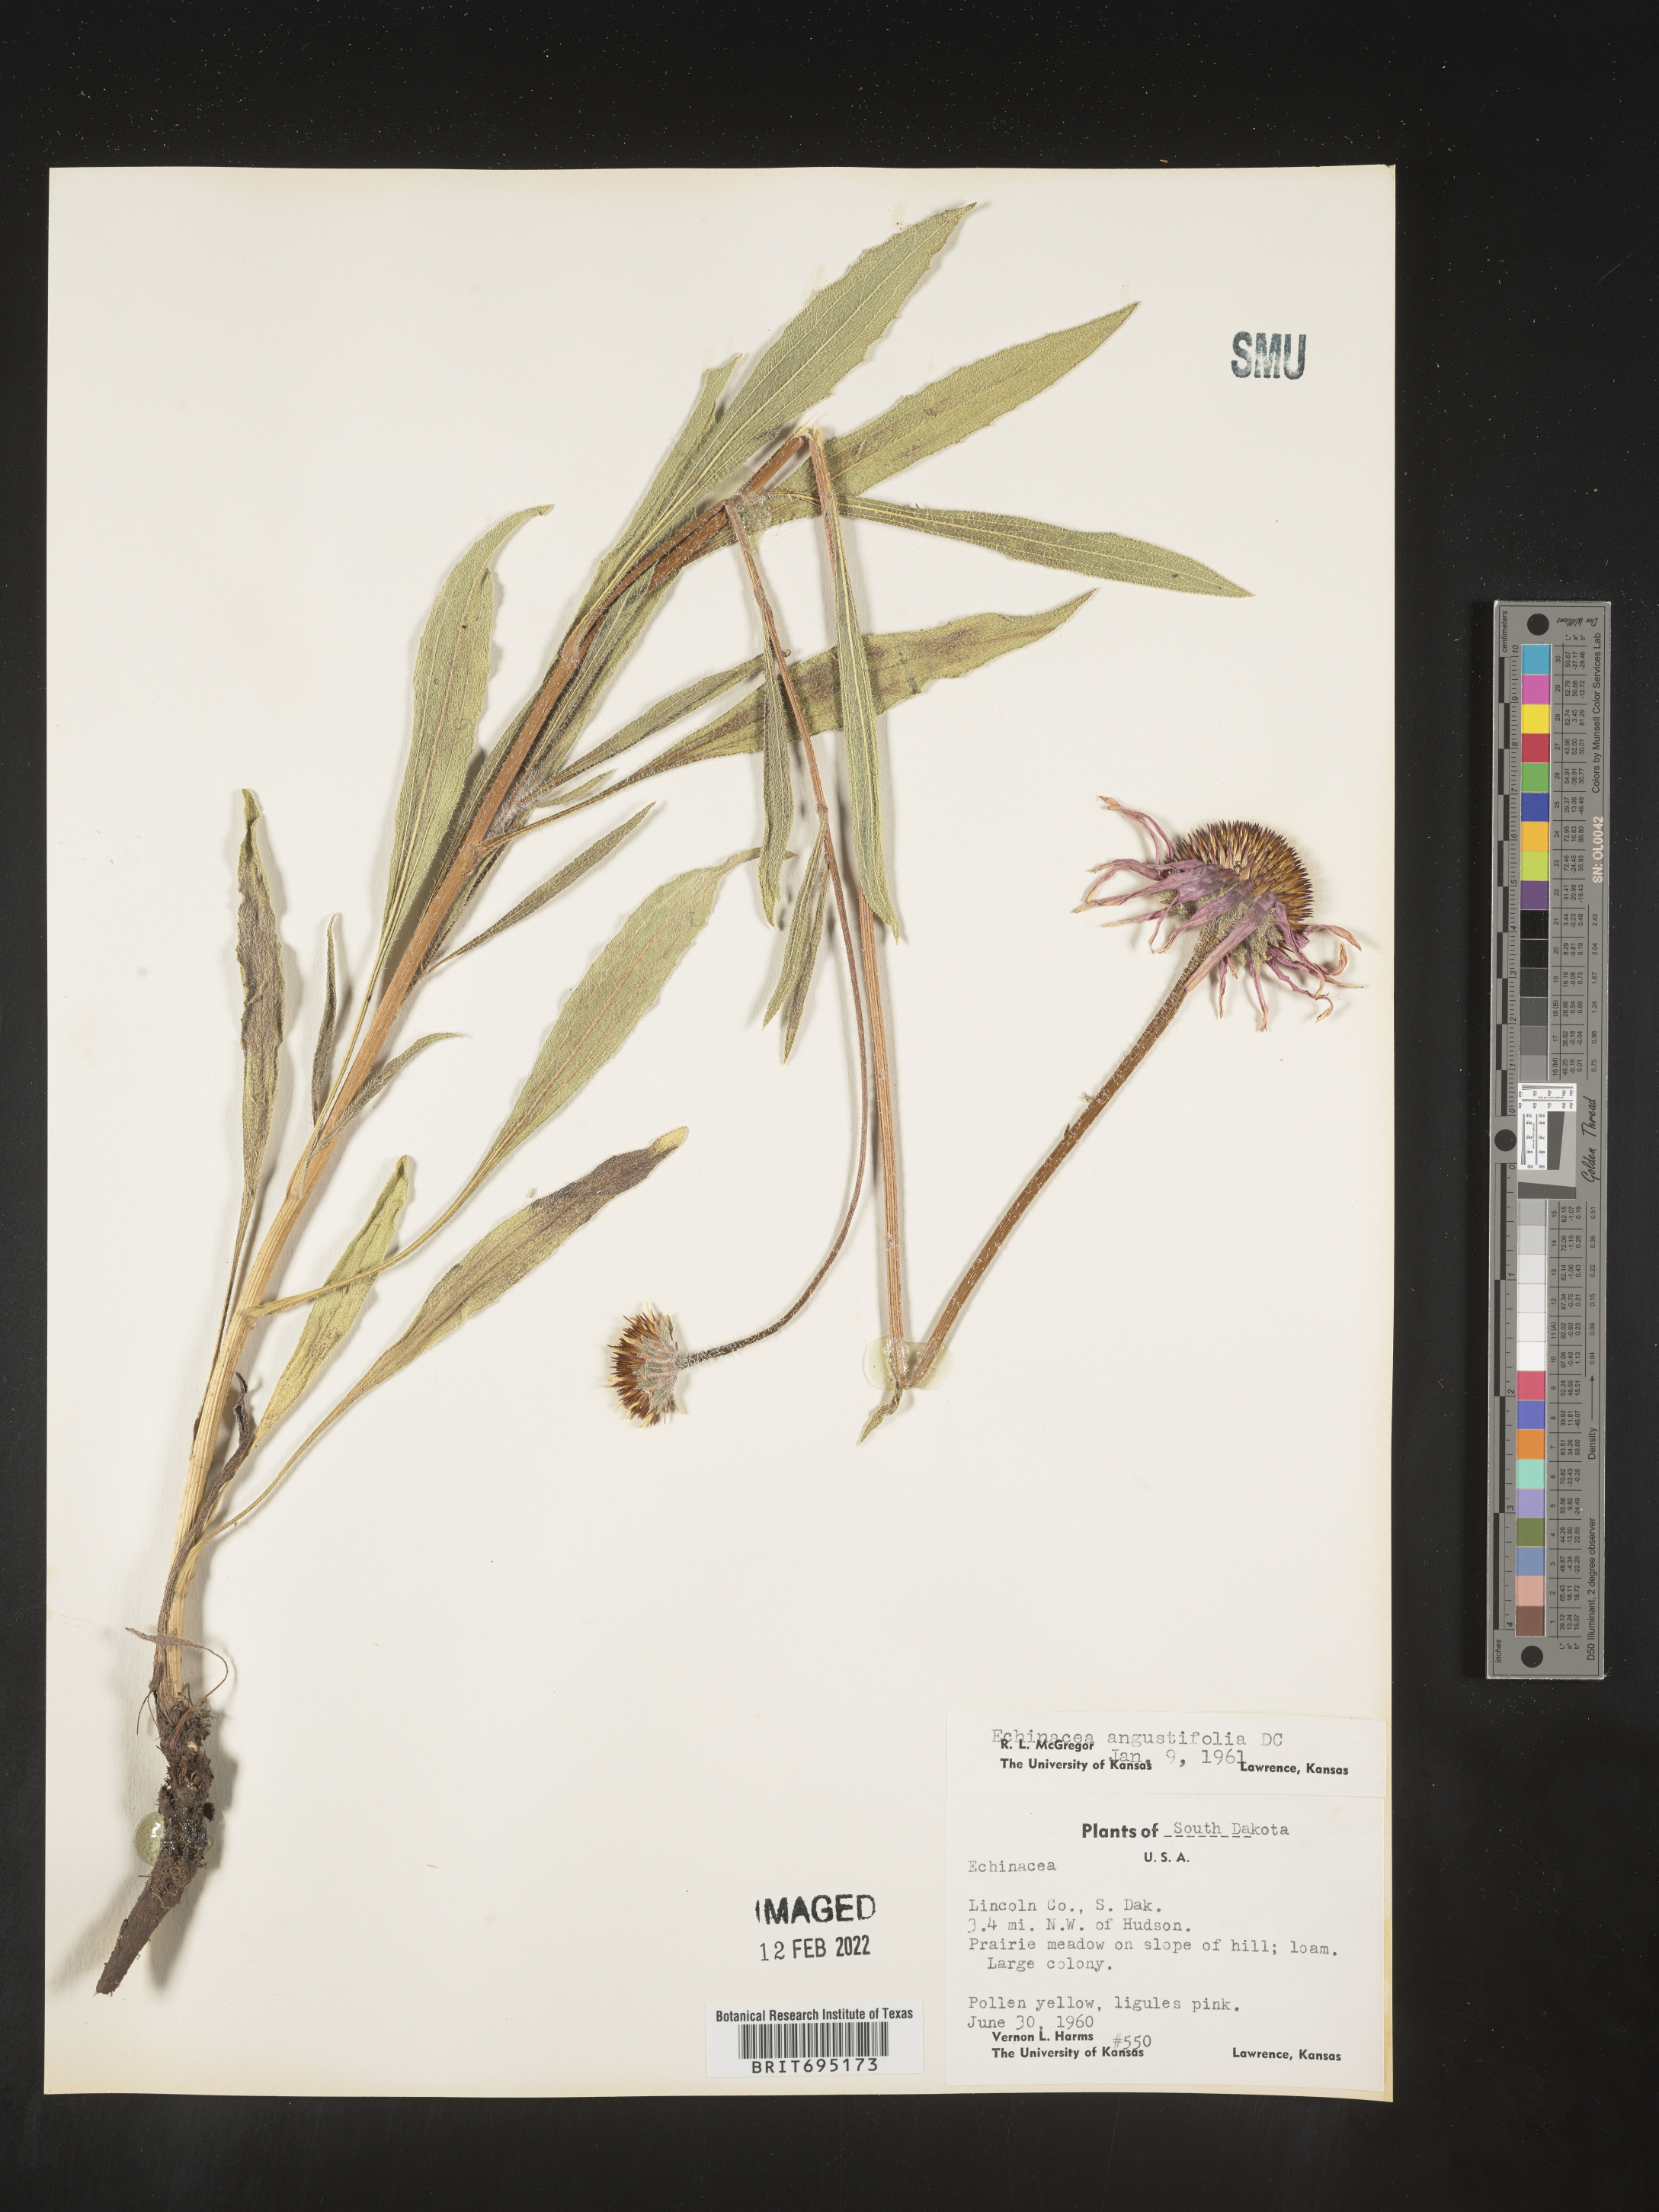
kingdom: Plantae
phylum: Tracheophyta
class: Magnoliopsida
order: Asterales
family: Asteraceae
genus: Echinacea
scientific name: Echinacea angustifolia
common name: Black-sampson echinacea
